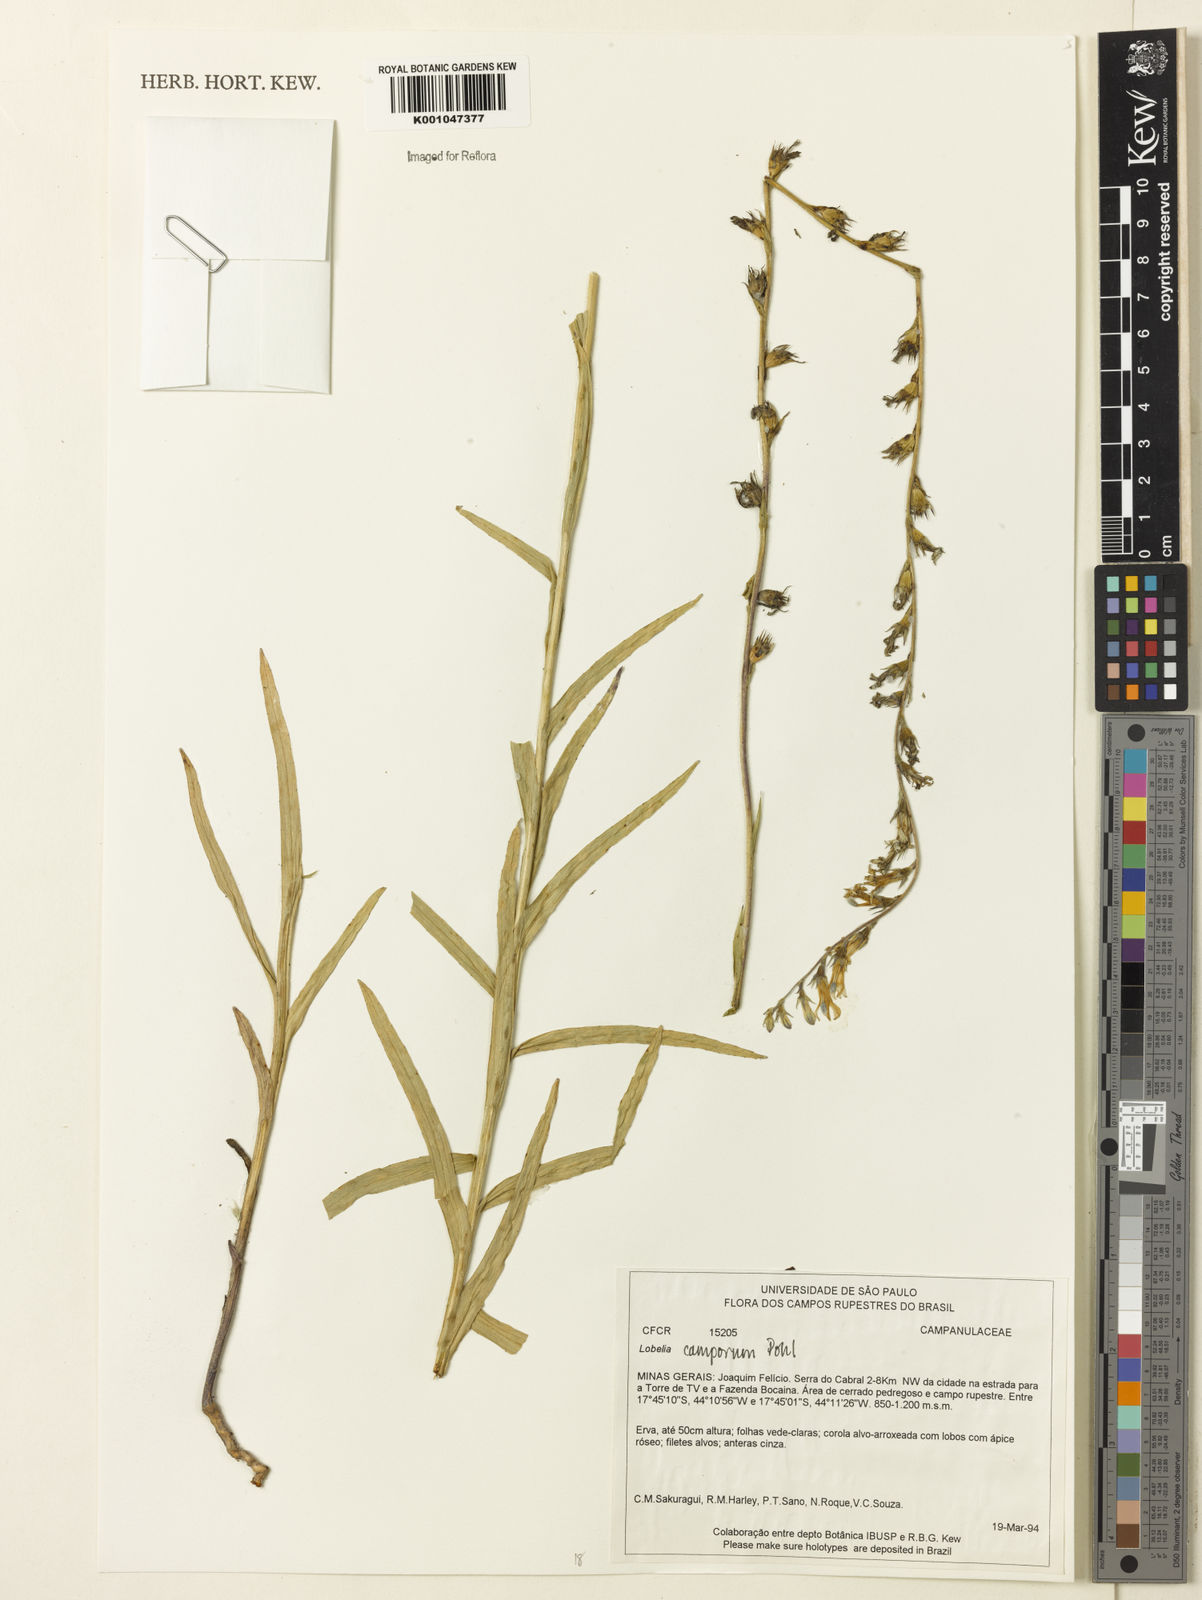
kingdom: Plantae
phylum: Tracheophyta
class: Magnoliopsida
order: Asterales
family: Campanulaceae
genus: Lobelia
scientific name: Lobelia camporum
